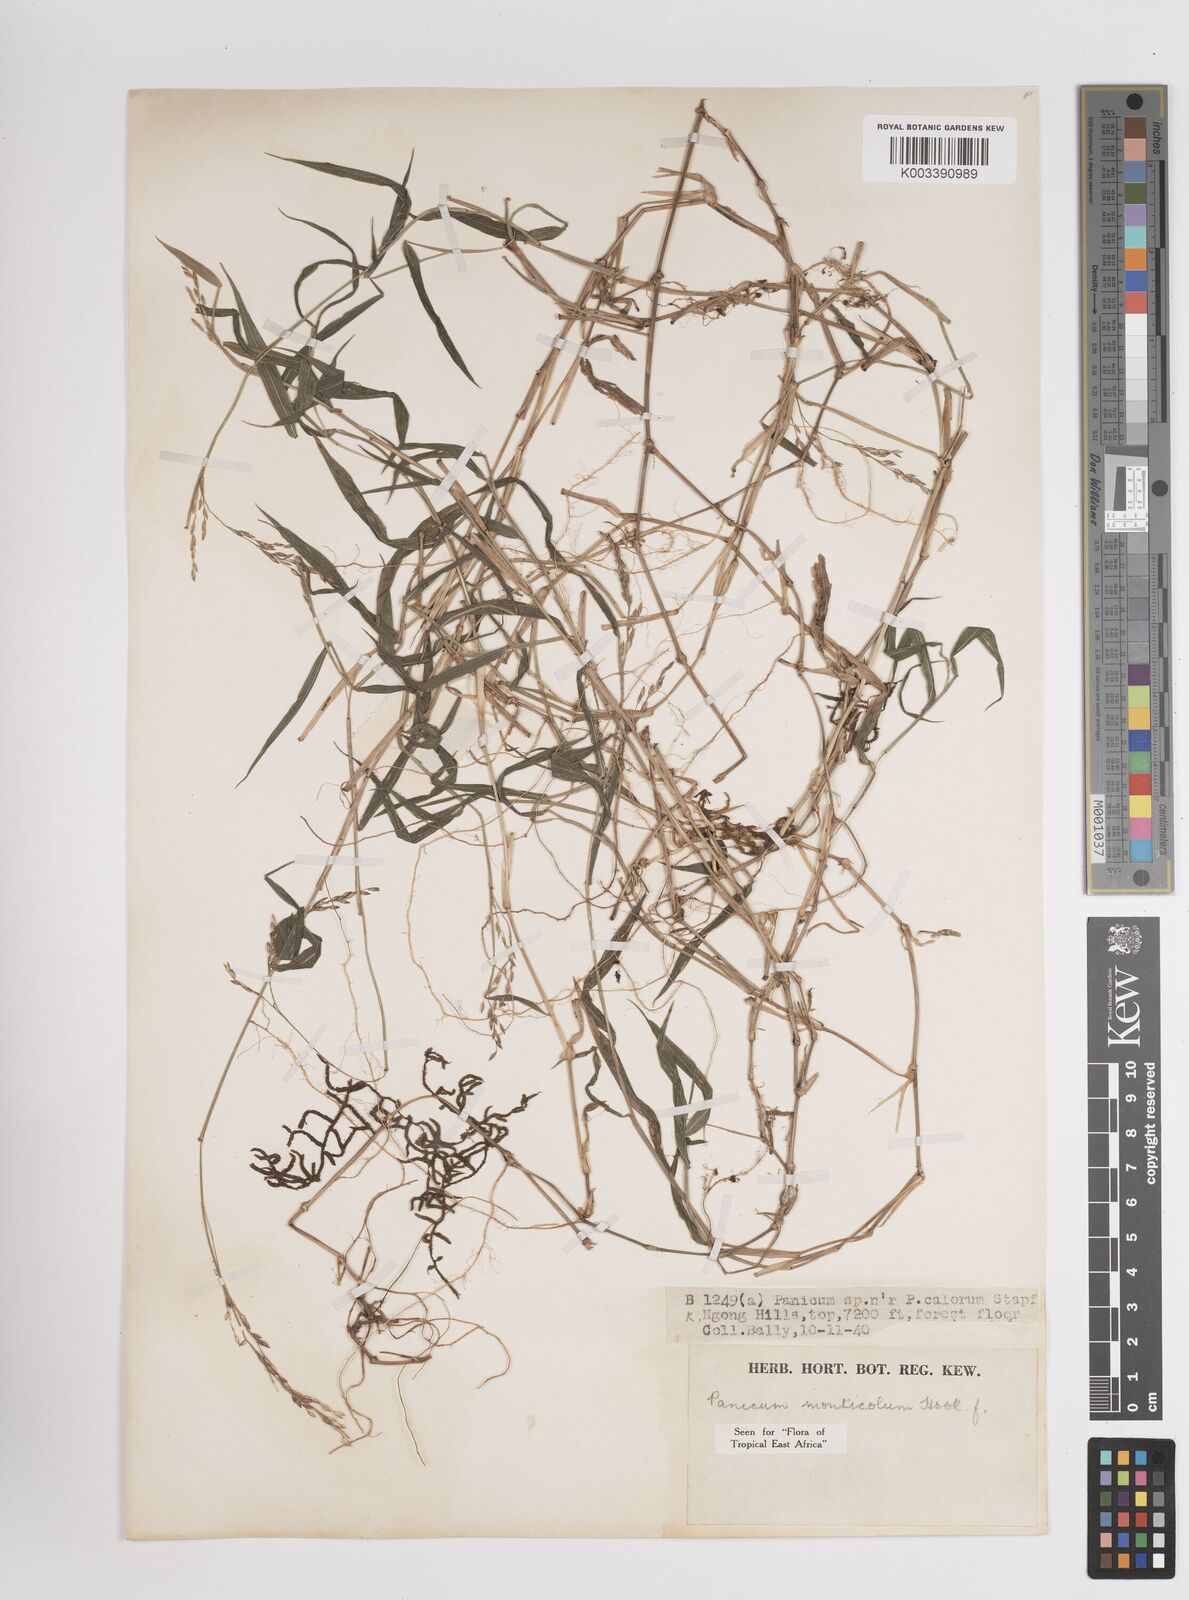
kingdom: Plantae
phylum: Tracheophyta
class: Liliopsida
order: Poales
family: Poaceae
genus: Panicum
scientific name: Panicum monticola
